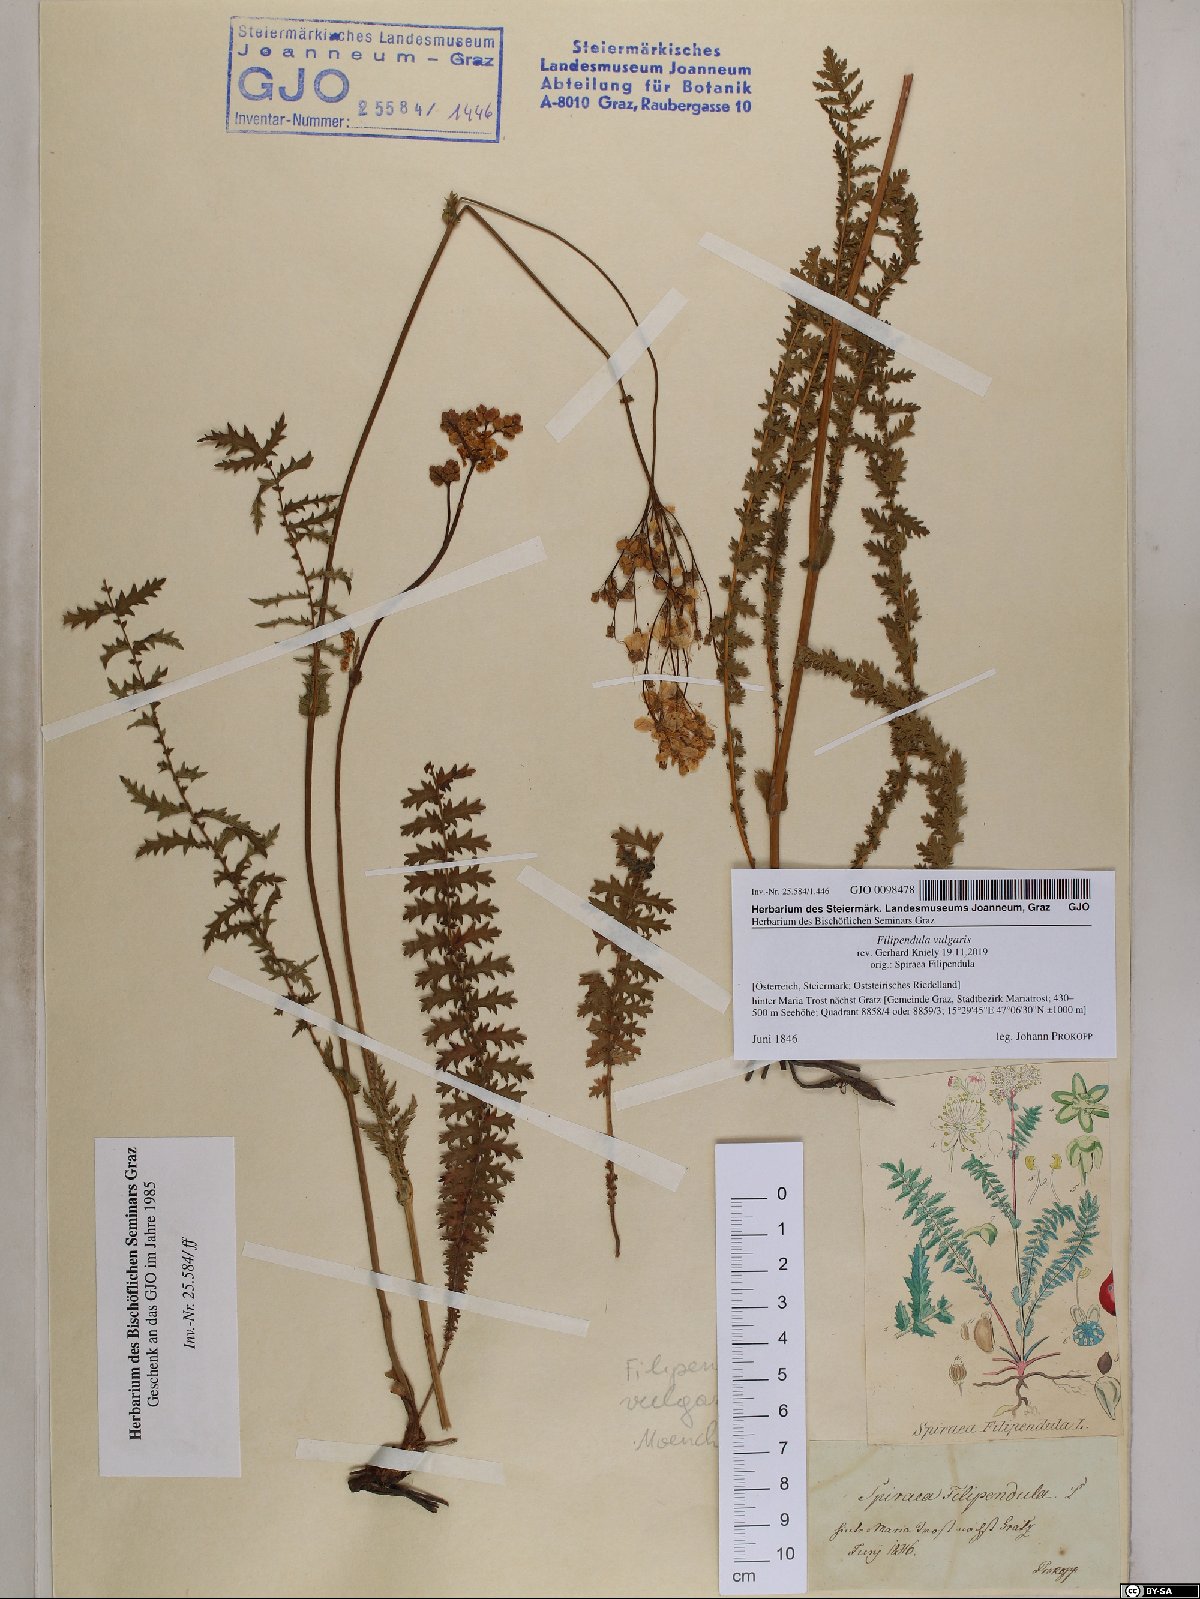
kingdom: Plantae
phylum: Tracheophyta
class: Magnoliopsida
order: Rosales
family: Rosaceae
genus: Filipendula
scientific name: Filipendula vulgaris
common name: Dropwort
